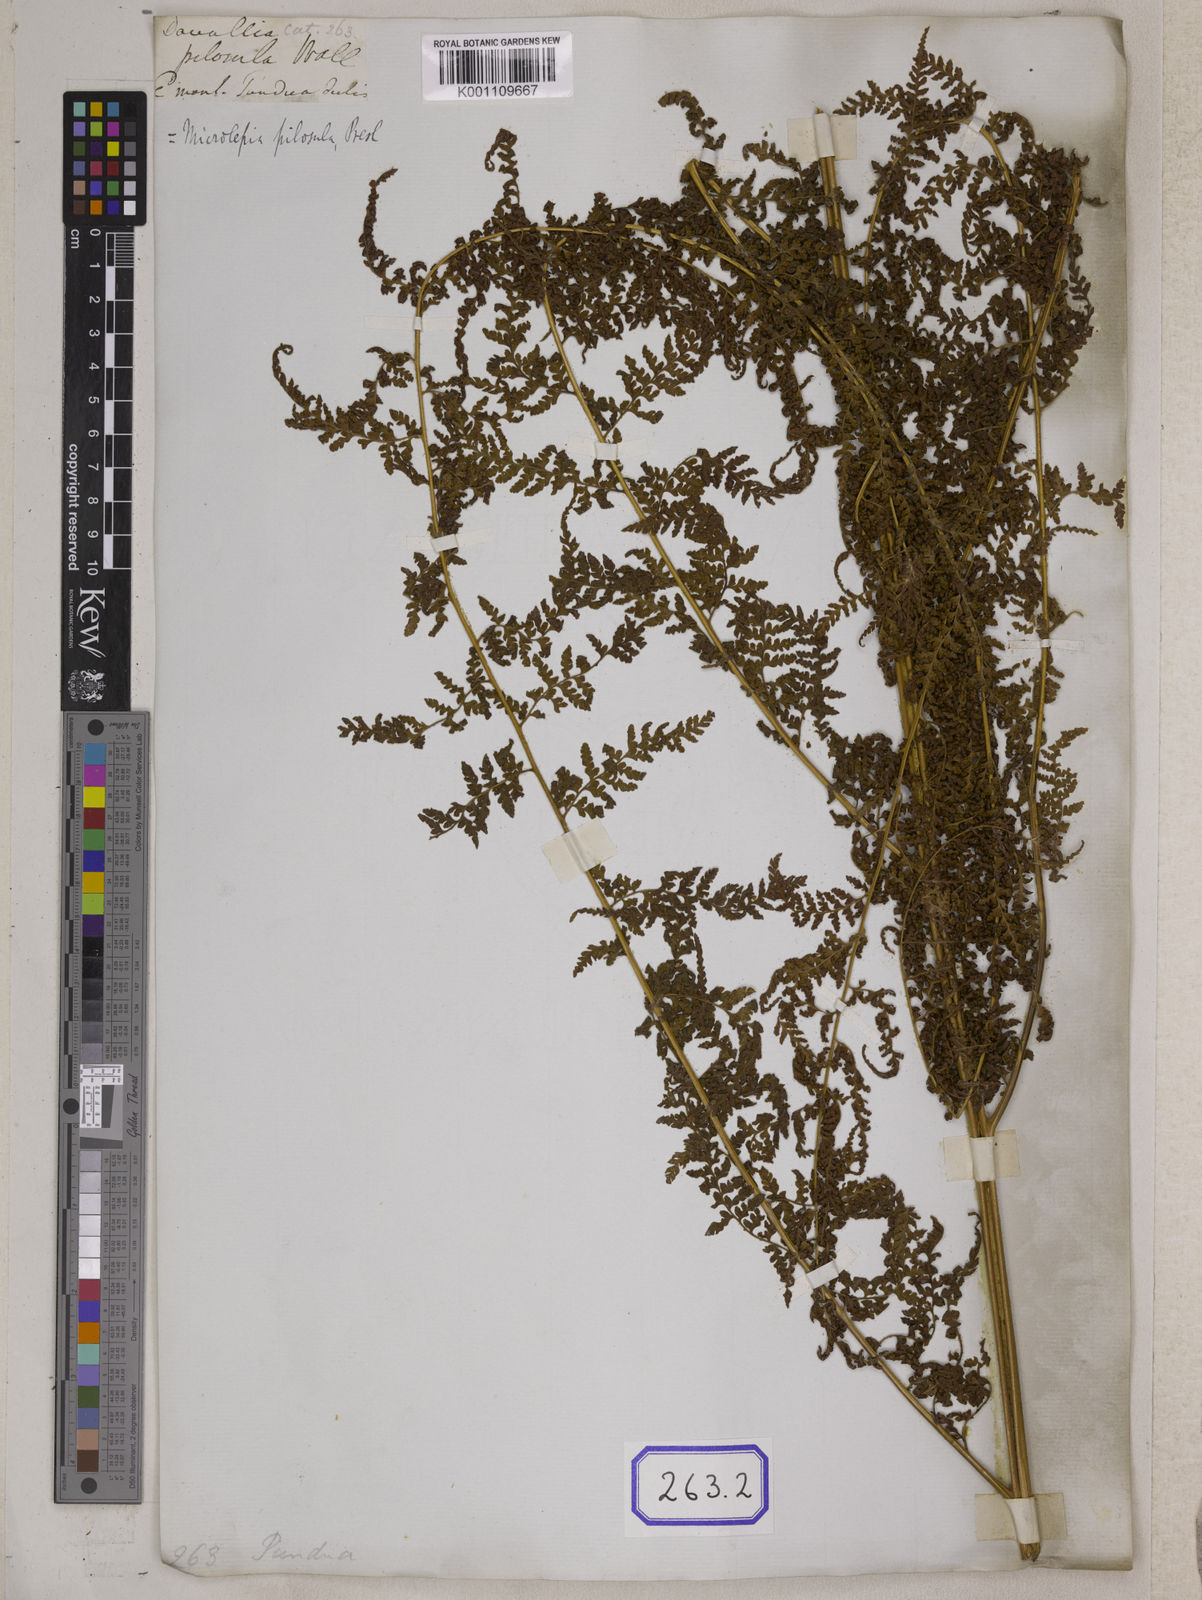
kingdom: Plantae
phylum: Tracheophyta
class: Polypodiopsida
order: Polypodiales
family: Dennstaedtiaceae
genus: Microlepia
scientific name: Microlepia speluncae
